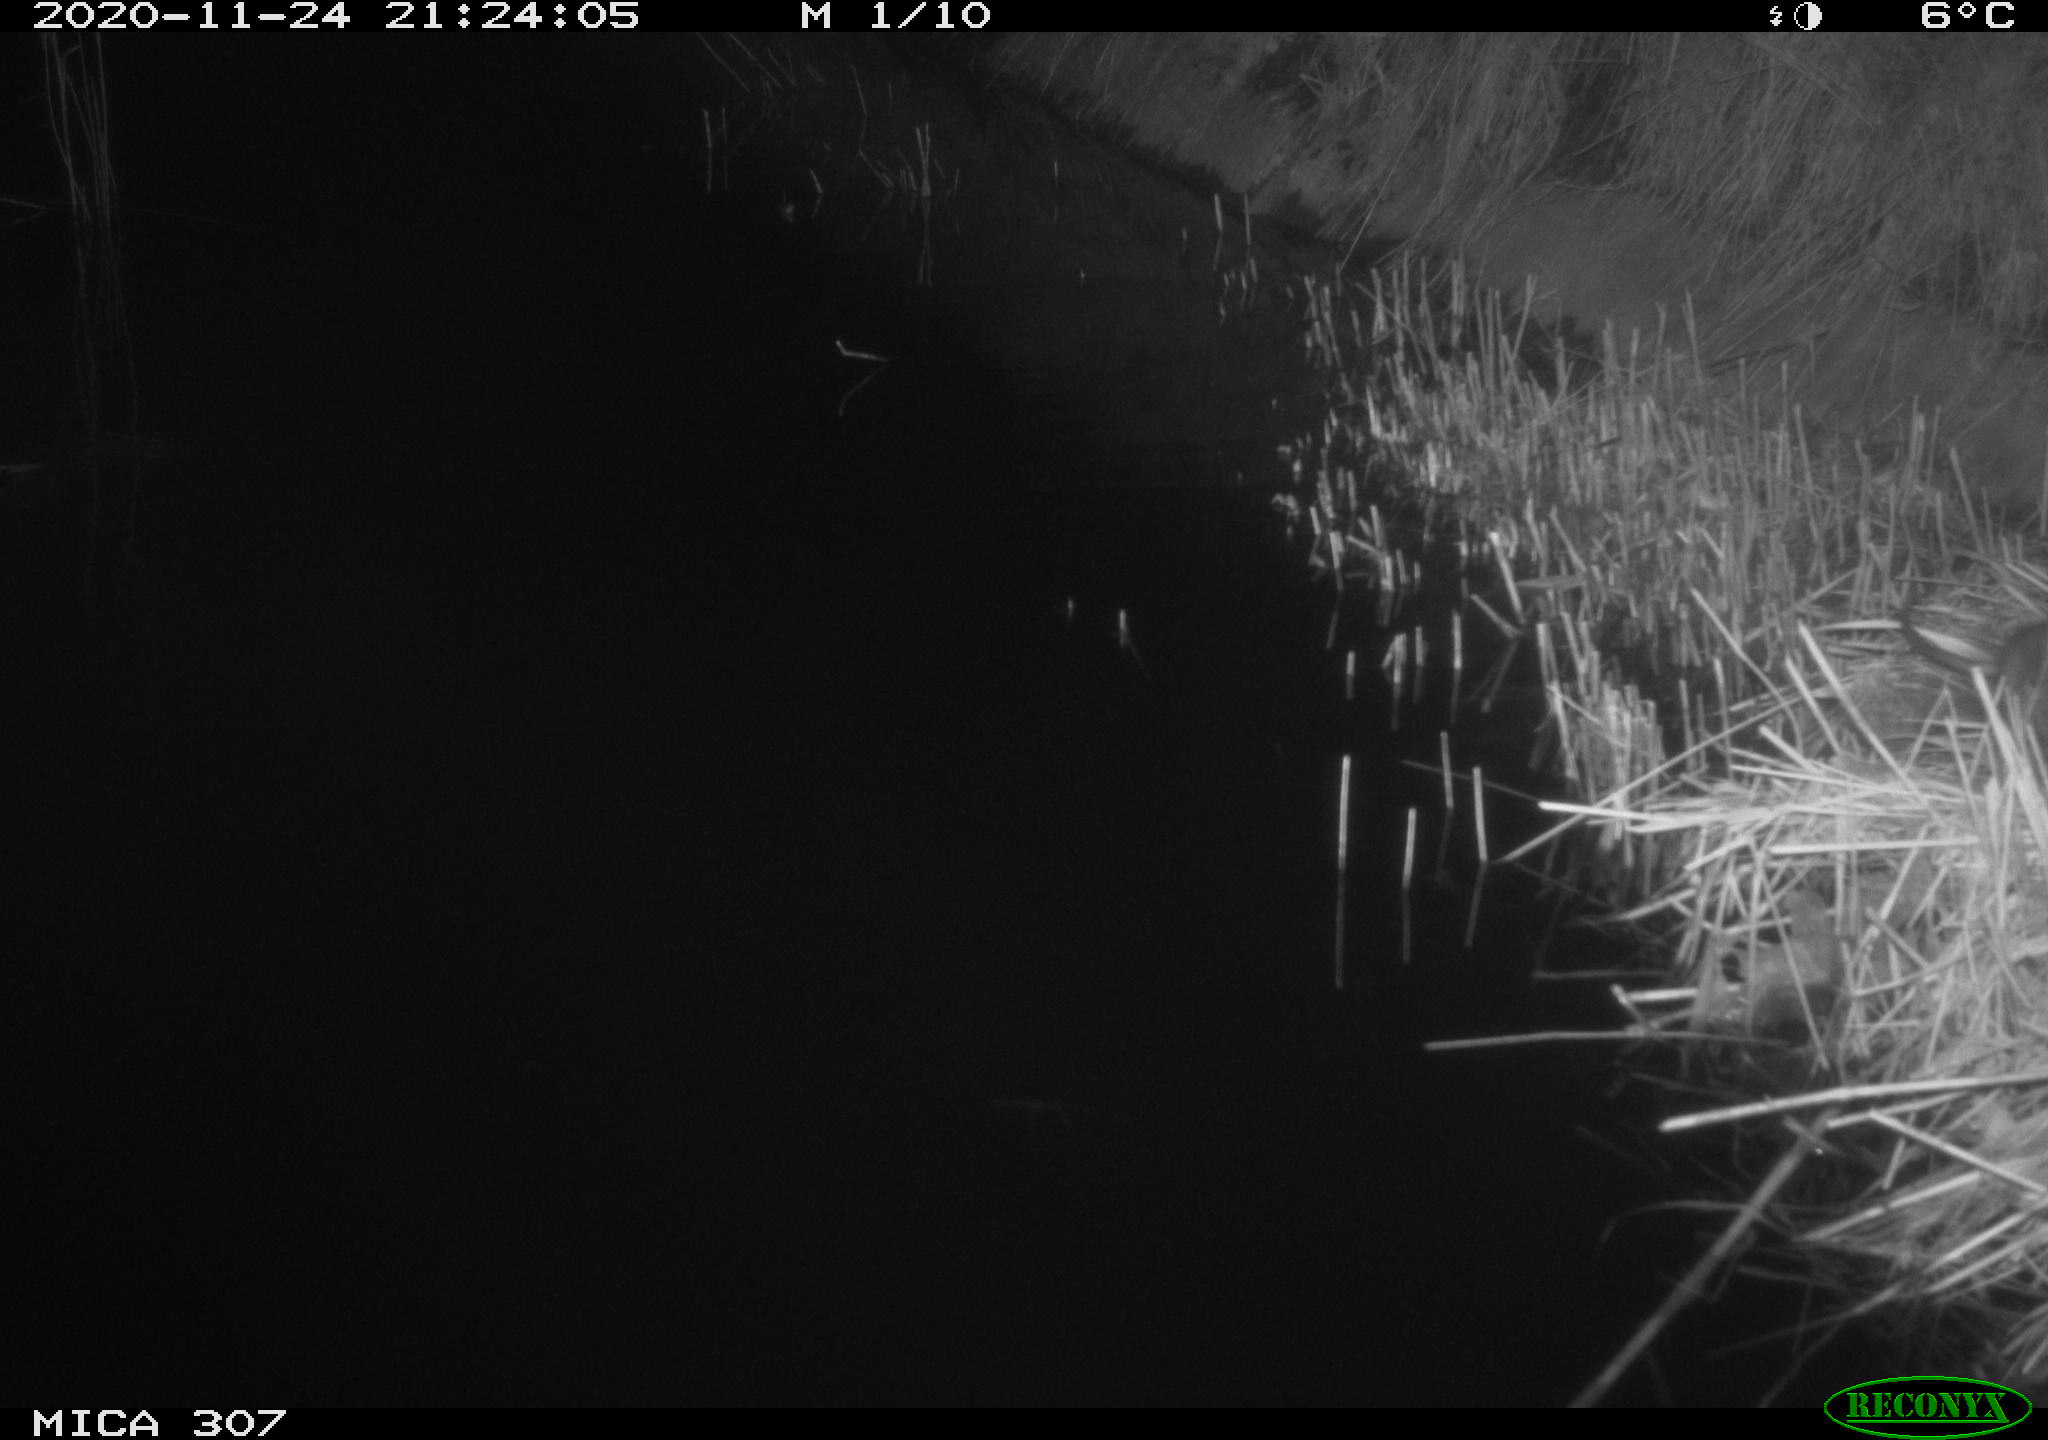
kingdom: Animalia
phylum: Chordata
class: Mammalia
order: Rodentia
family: Muridae
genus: Rattus
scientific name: Rattus norvegicus
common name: Brown rat
